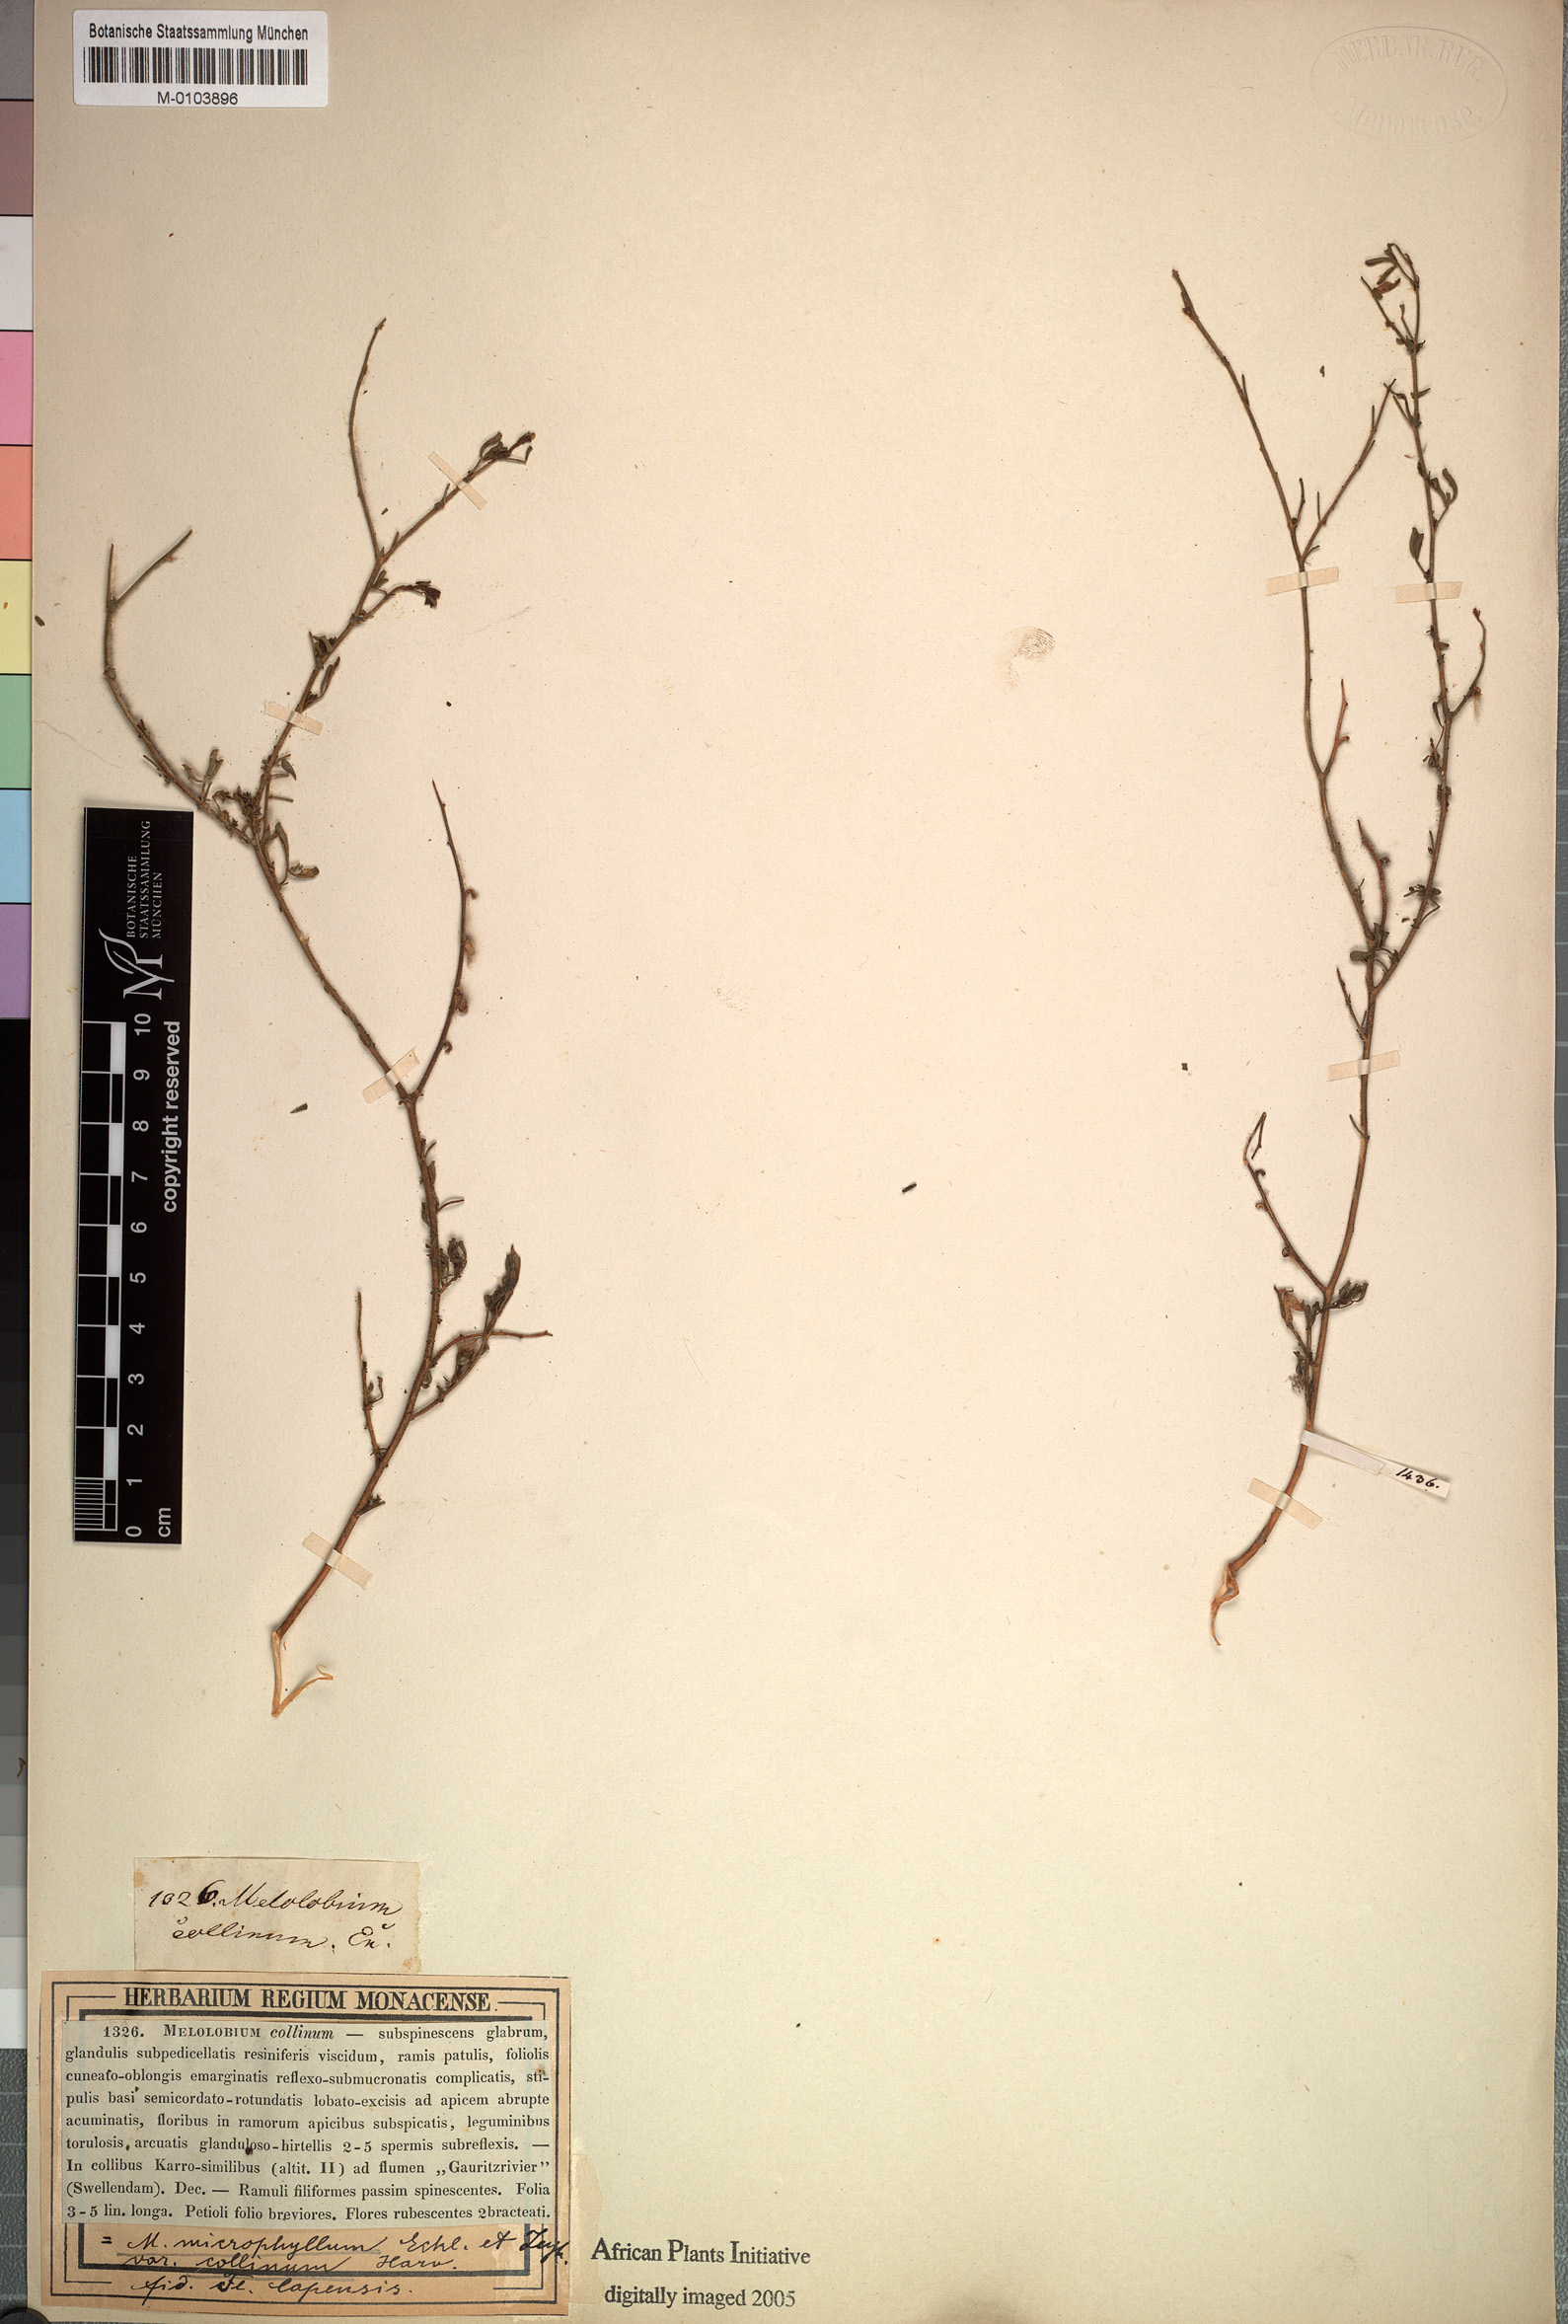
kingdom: Plantae
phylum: Tracheophyta
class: Magnoliopsida
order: Fabales
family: Fabaceae
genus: Melolobium
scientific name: Melolobium microphyllum
